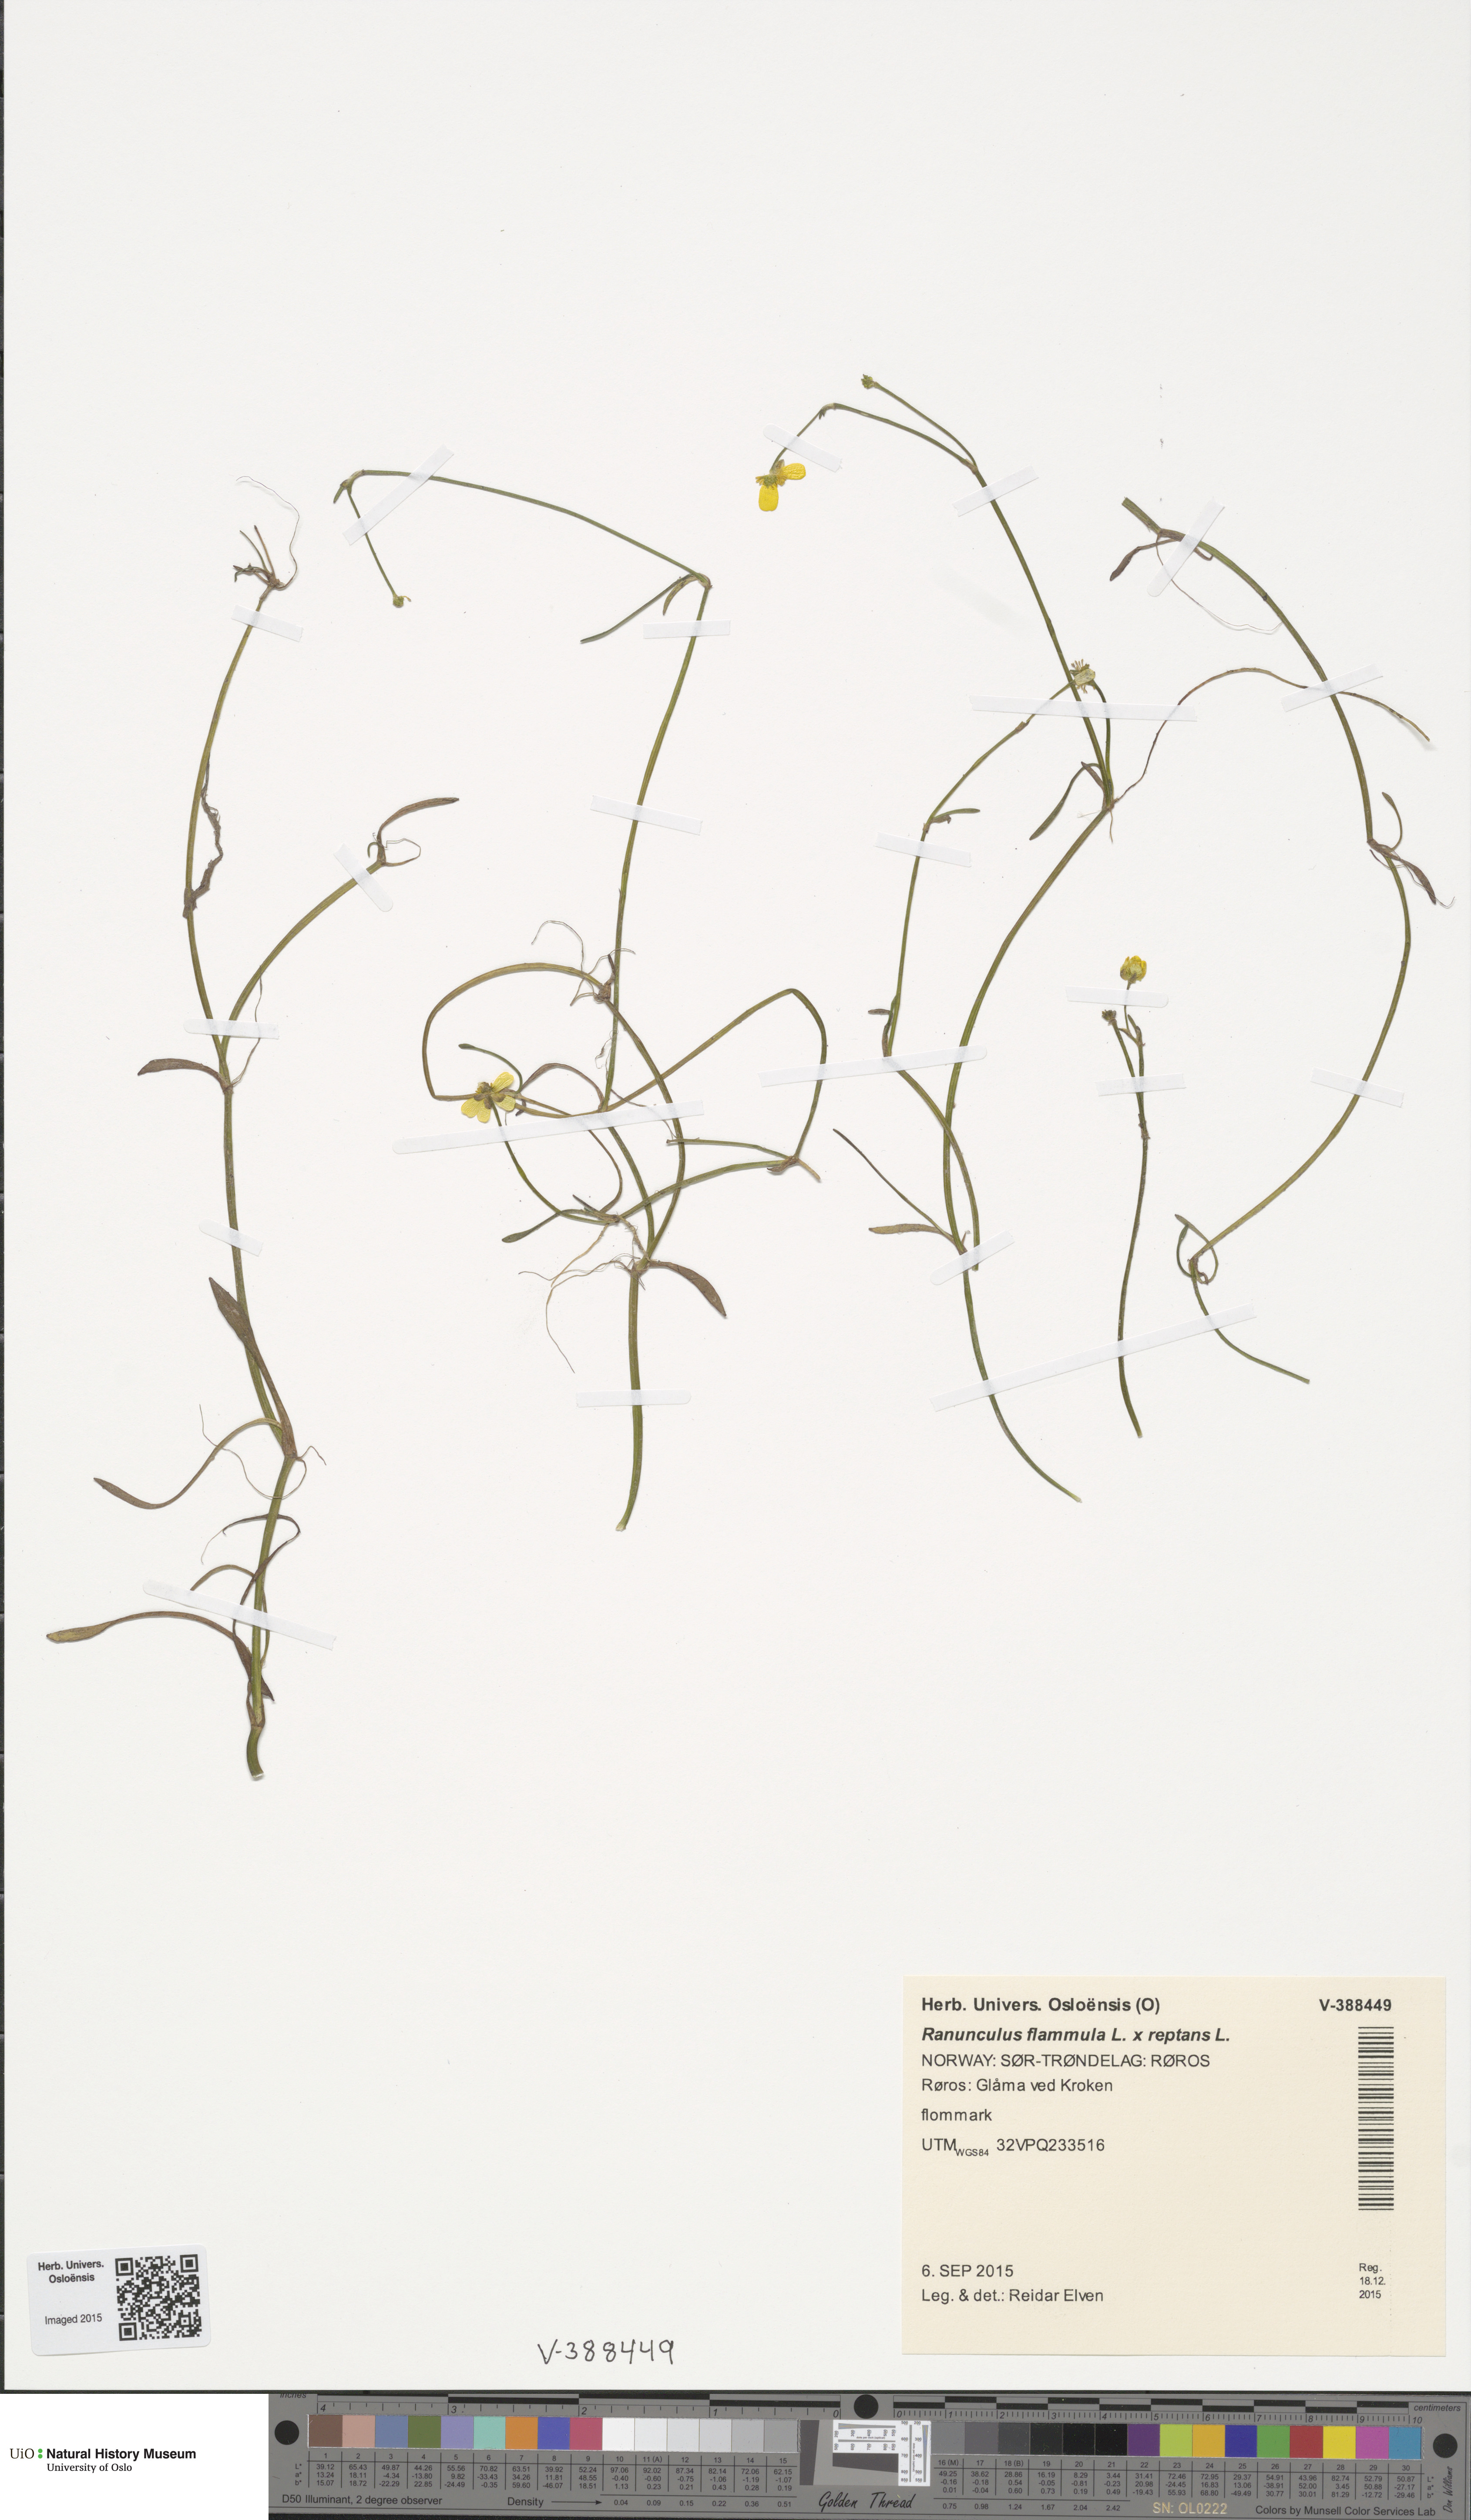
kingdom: Plantae
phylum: Tracheophyta
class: Magnoliopsida
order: Ranunculales
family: Ranunculaceae
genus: Ranunculus
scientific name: Ranunculus
